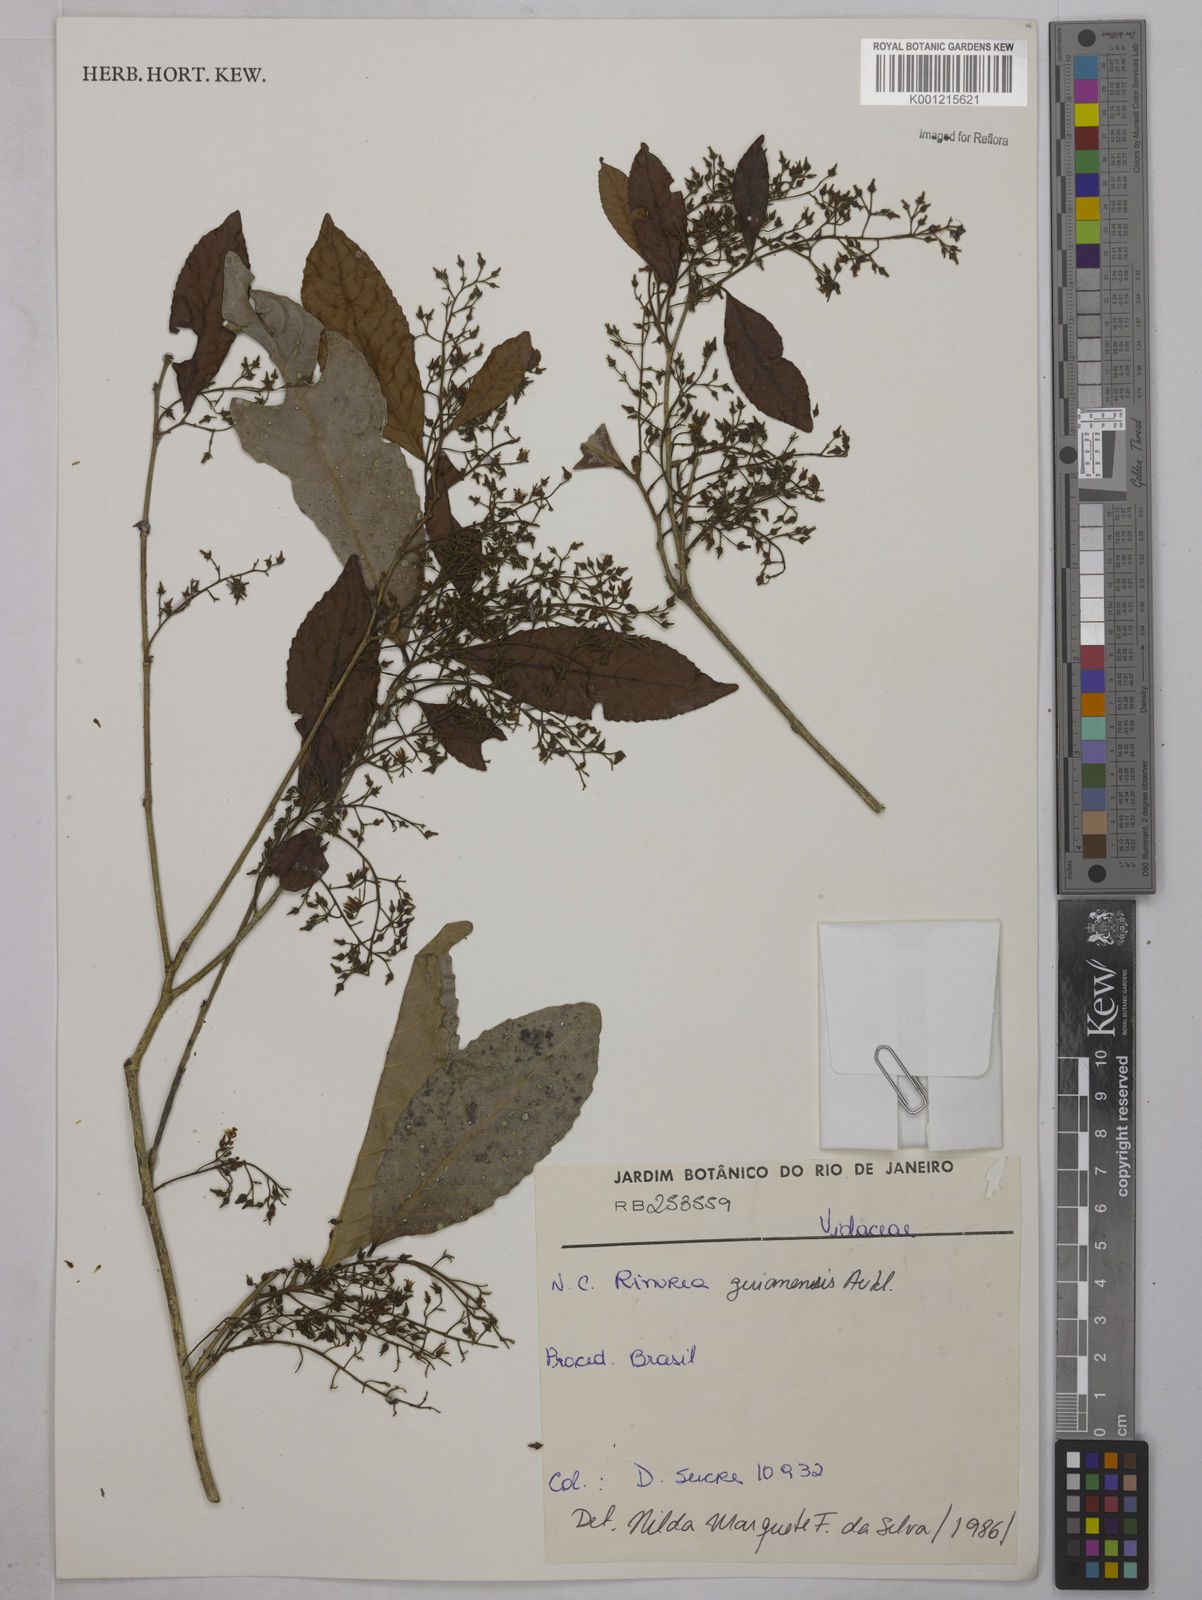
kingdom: Plantae
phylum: Tracheophyta
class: Magnoliopsida
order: Malpighiales
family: Violaceae
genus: Rinorea
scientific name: Rinorea guianensis
